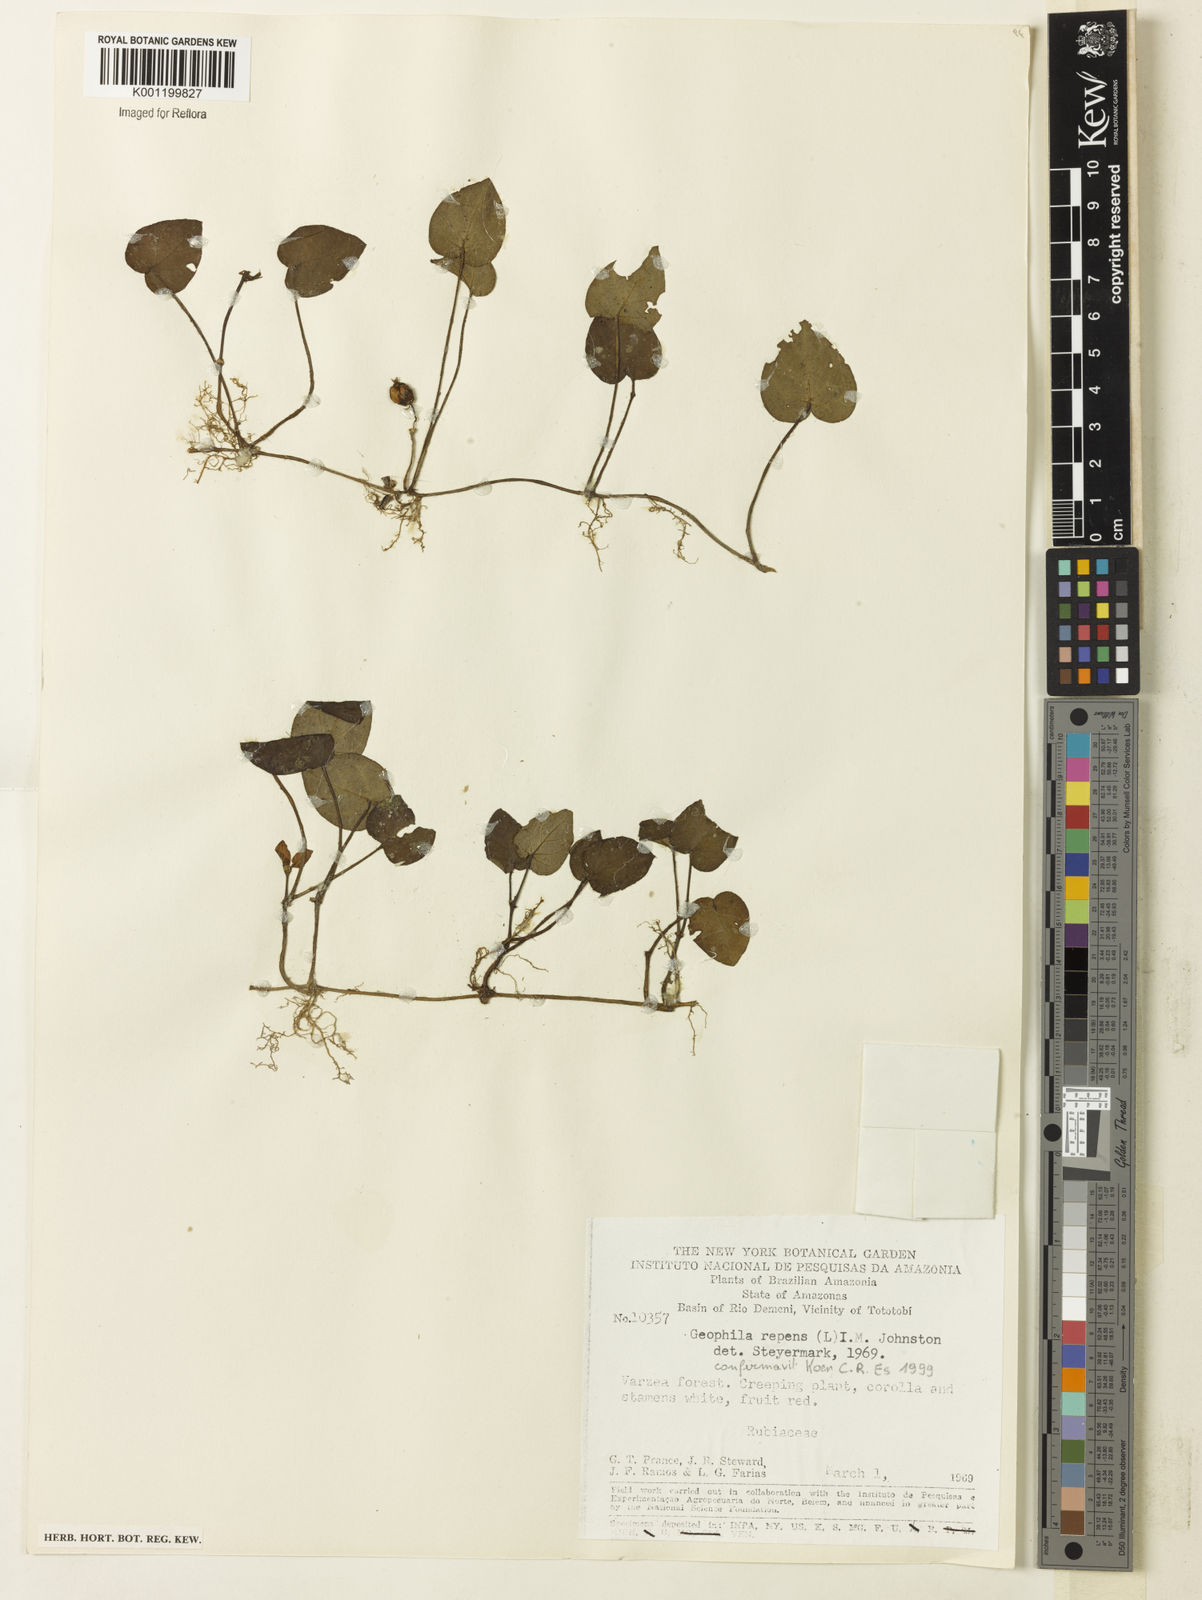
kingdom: Plantae
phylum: Tracheophyta
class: Magnoliopsida
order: Gentianales
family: Rubiaceae
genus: Geophila
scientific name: Geophila repens
